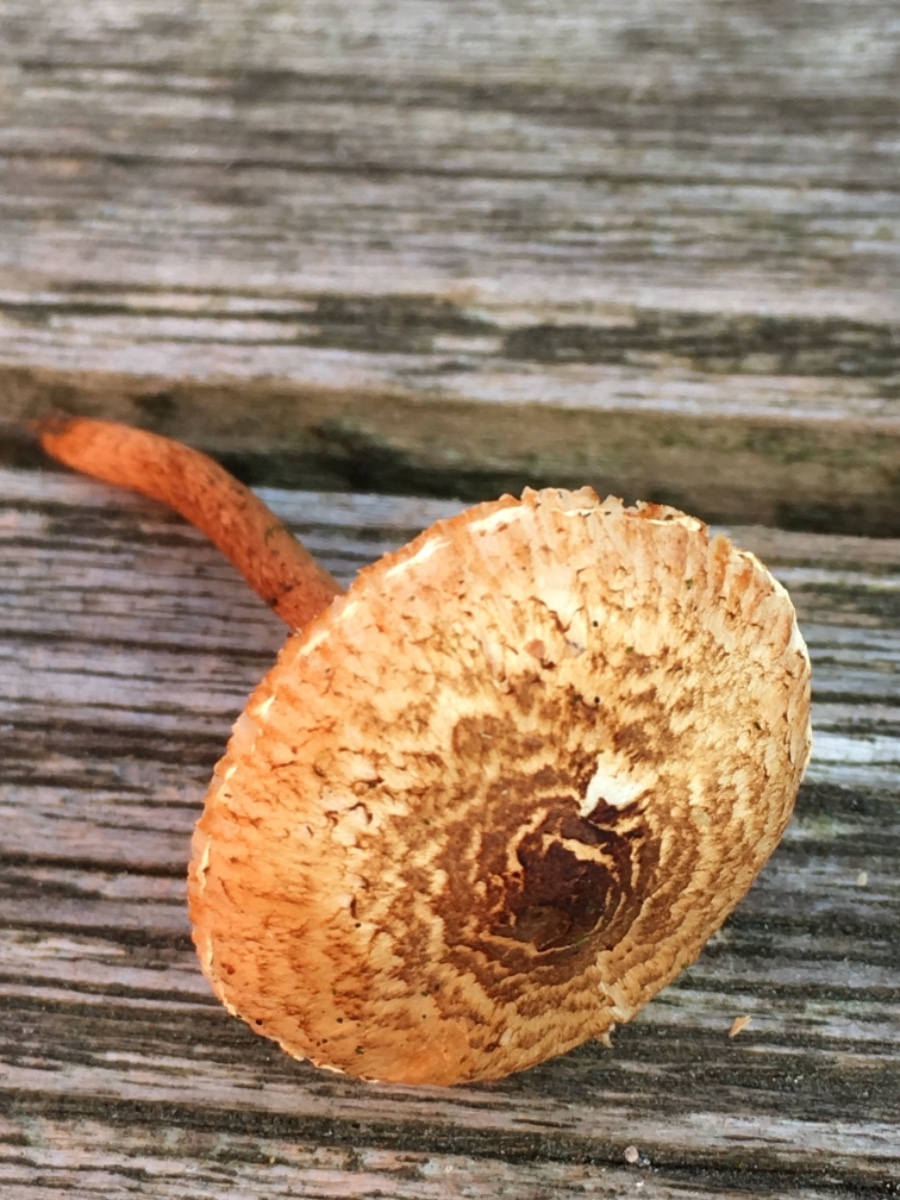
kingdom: Fungi
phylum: Basidiomycota
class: Agaricomycetes
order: Agaricales
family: Agaricaceae
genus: Lepiota
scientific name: Lepiota castanea
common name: kastaniebrun parasolhat
